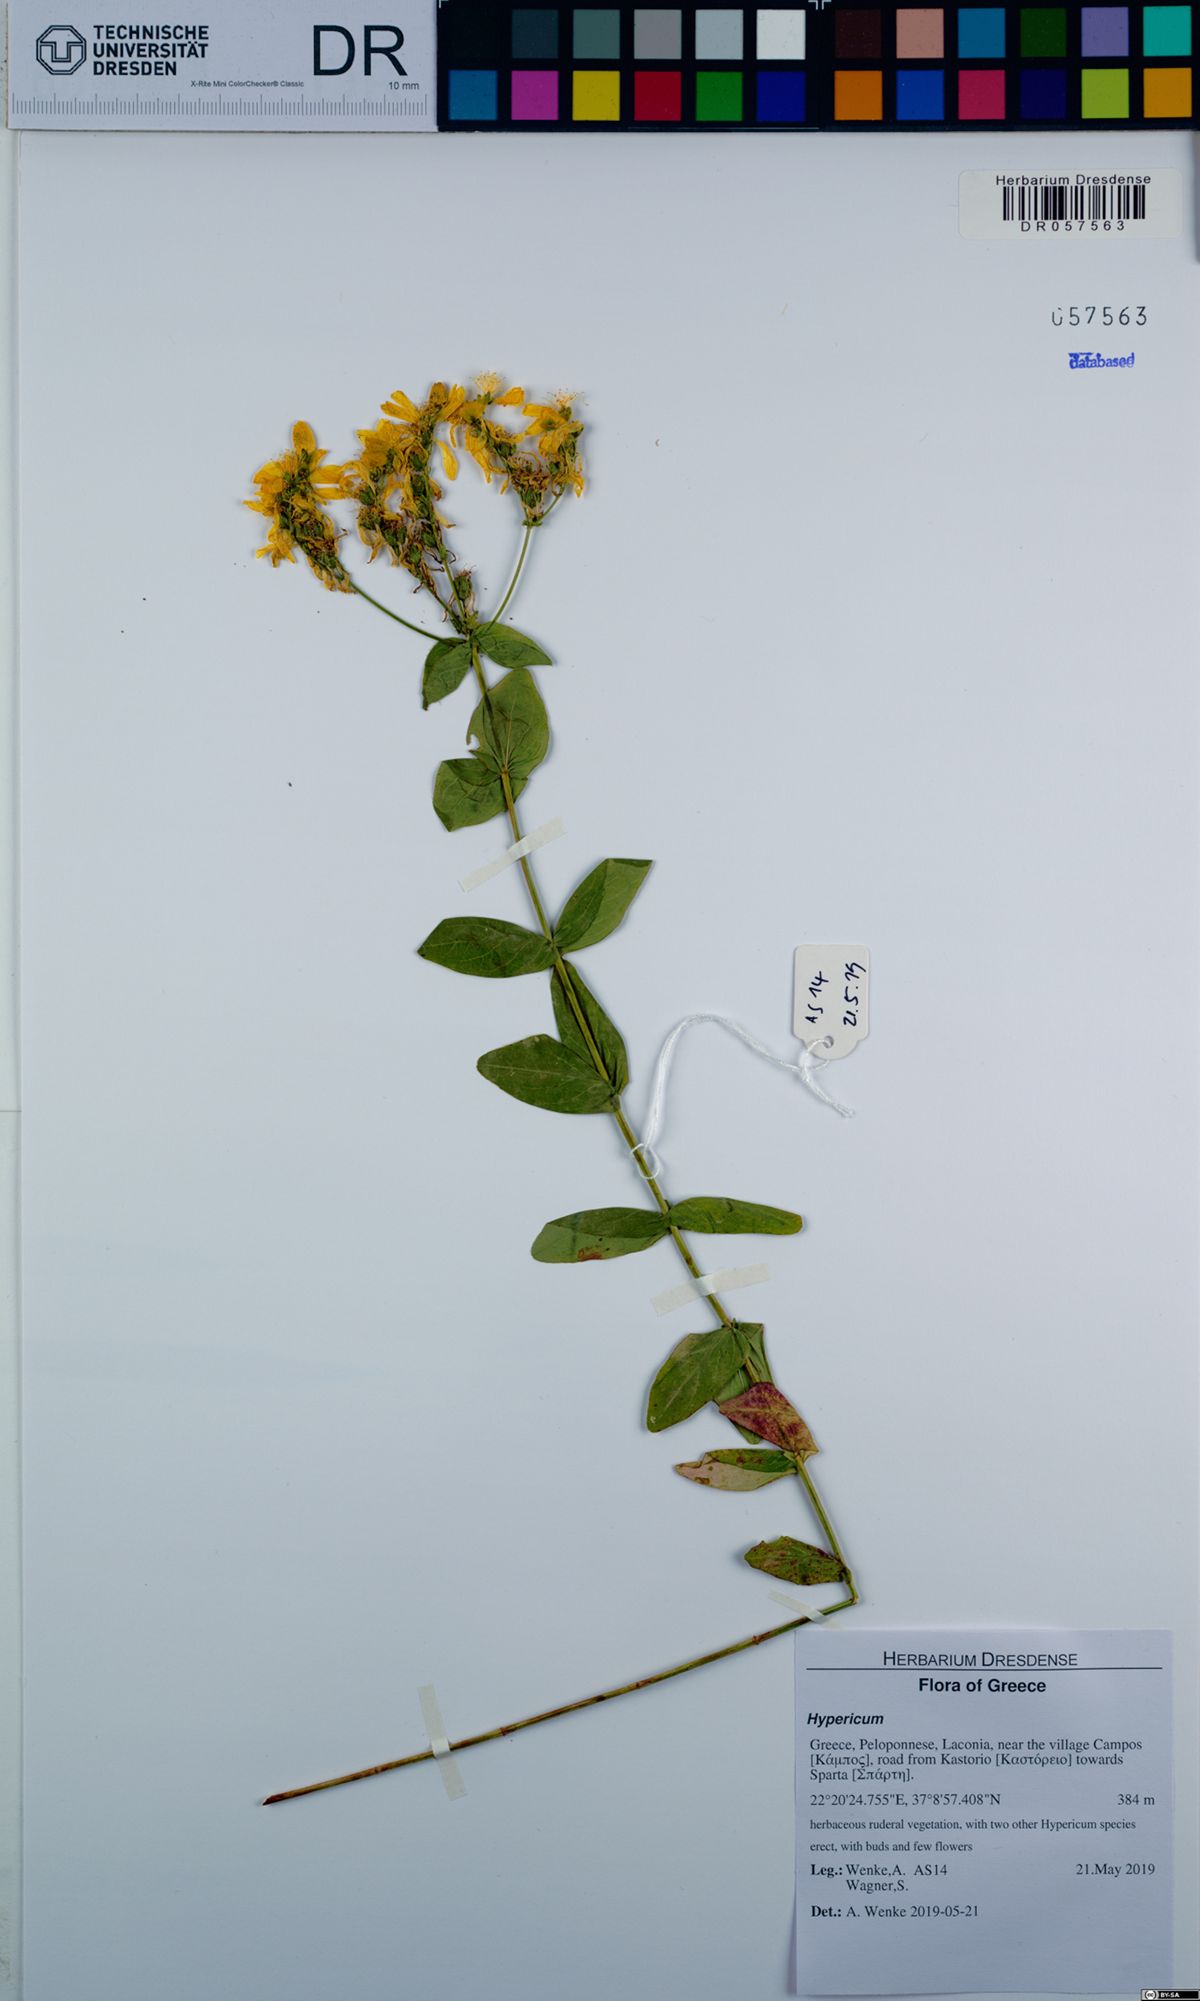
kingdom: Plantae
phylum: Tracheophyta
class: Magnoliopsida
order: Malpighiales
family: Hypericaceae
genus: Hypericum
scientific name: Hypericum perfoliatum
